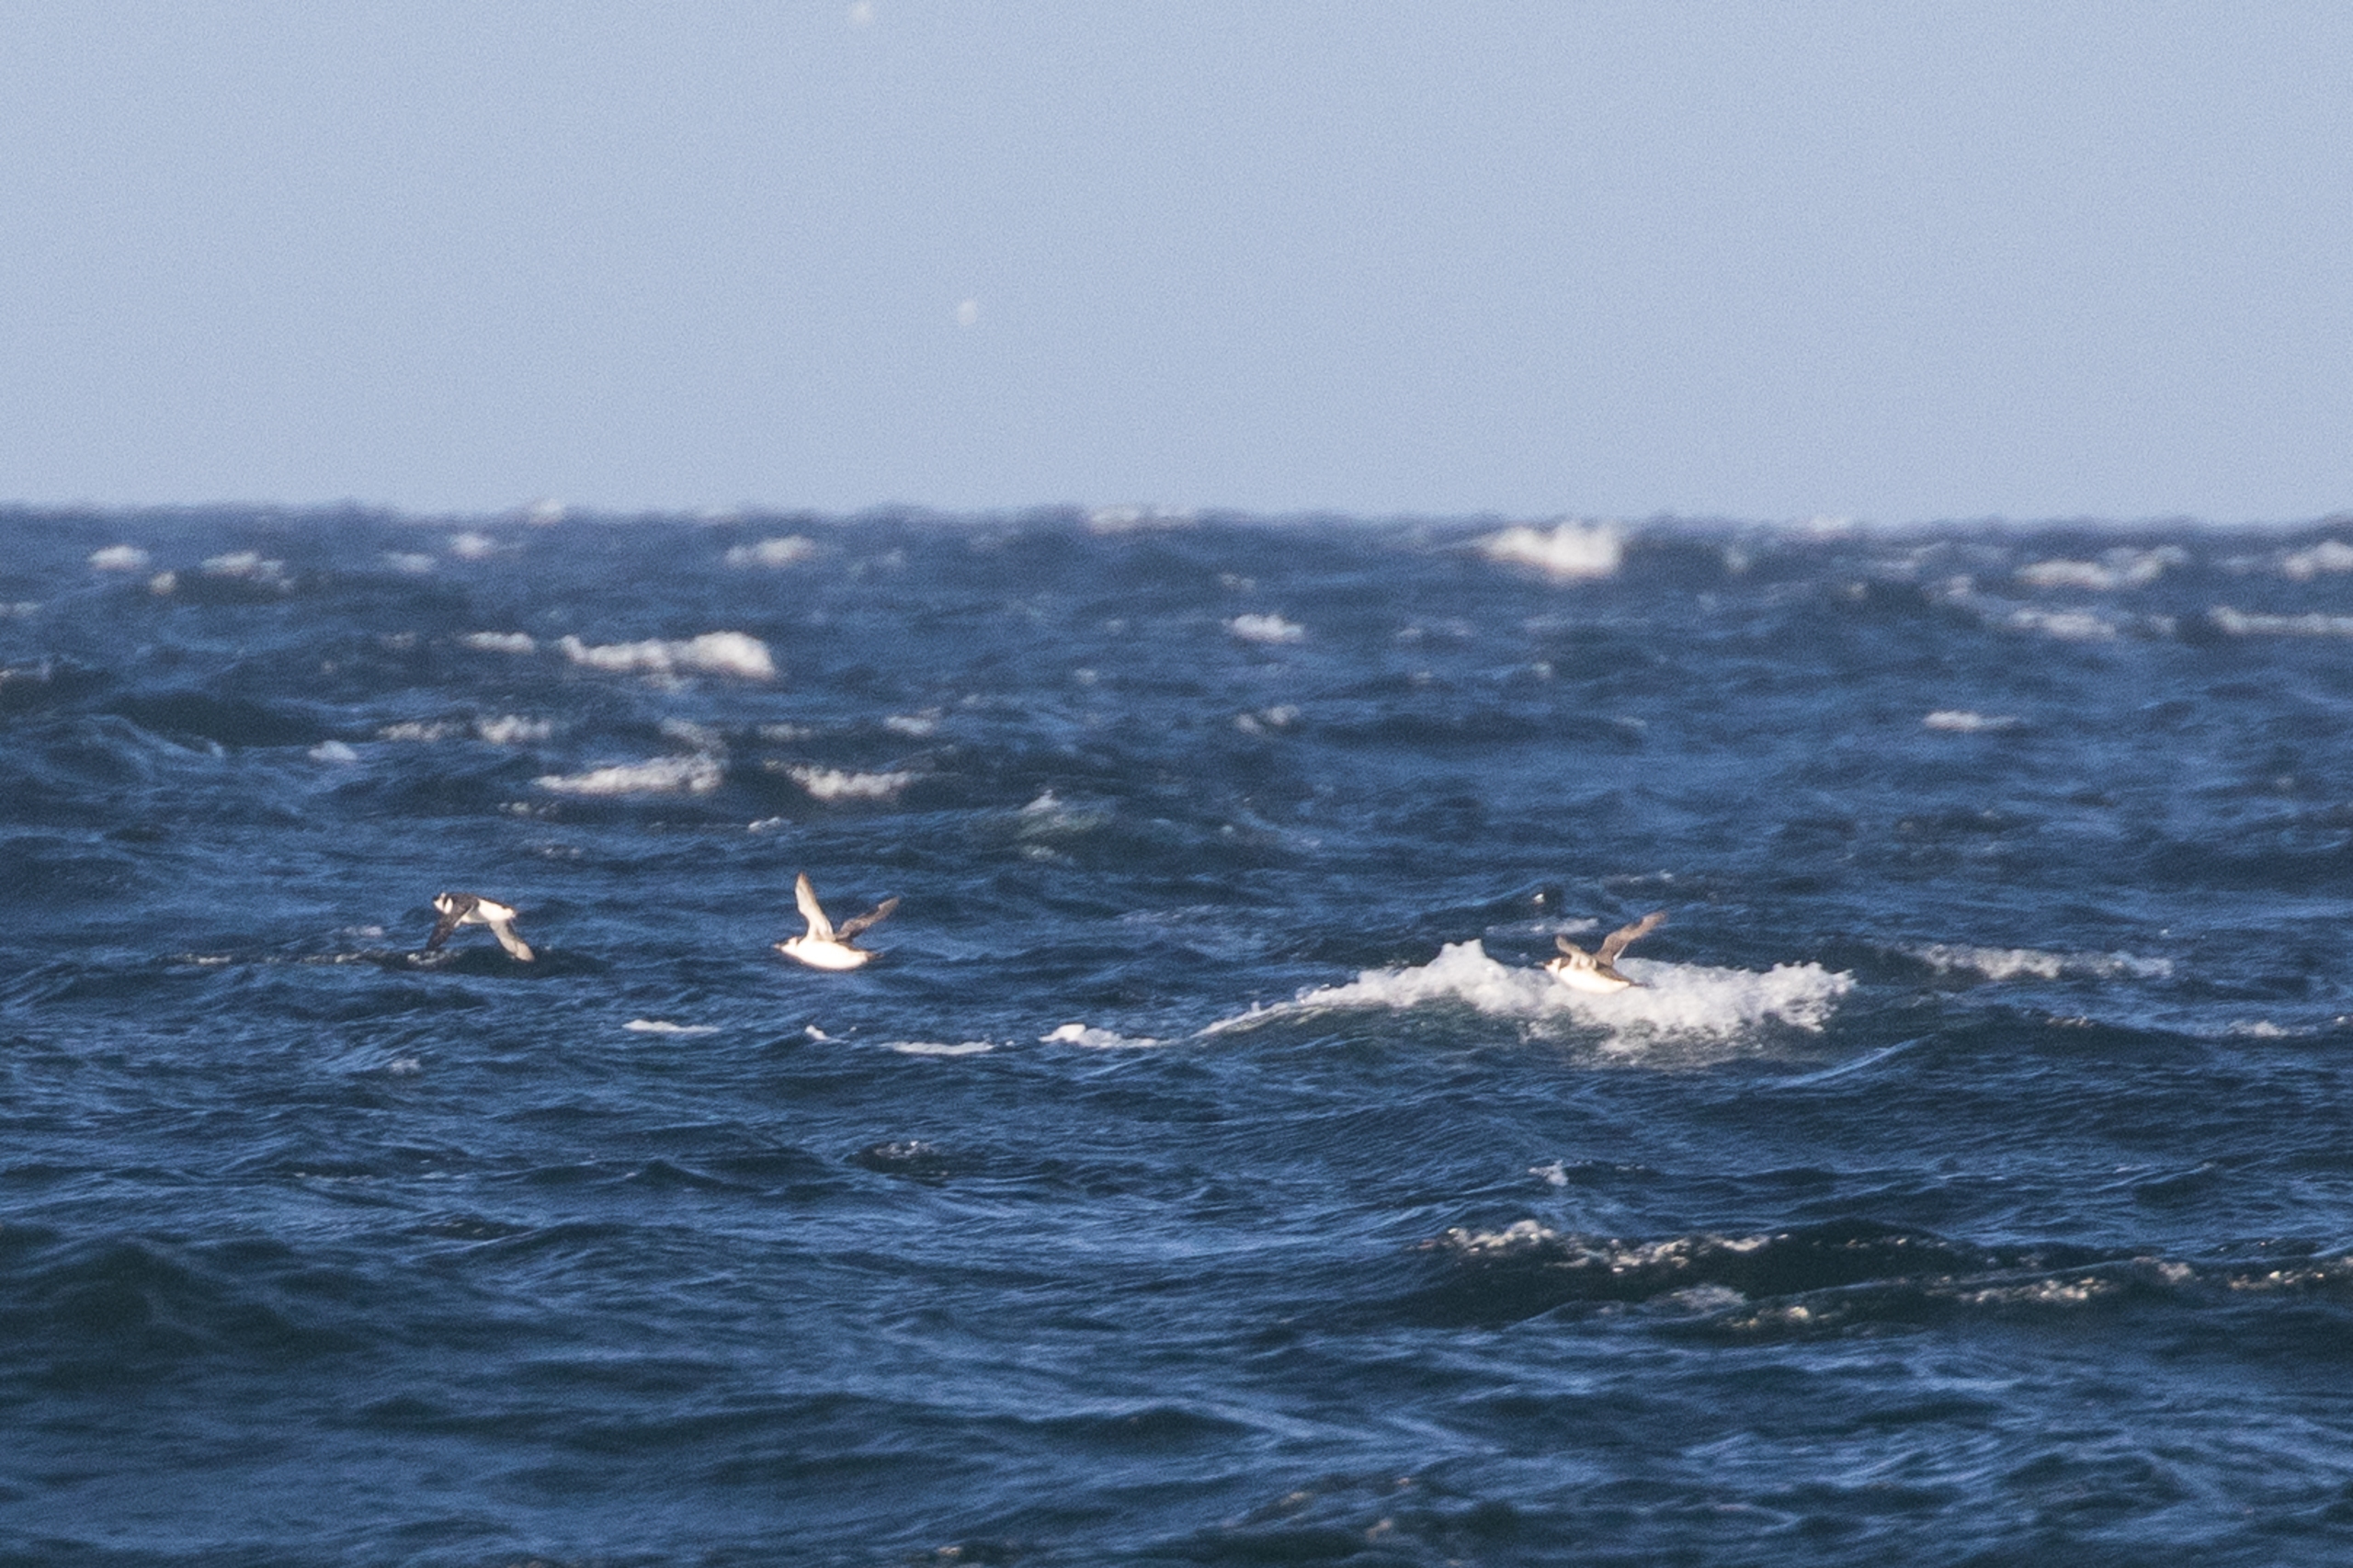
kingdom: Animalia
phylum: Chordata
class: Aves
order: Charadriiformes
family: Alcidae
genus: Uria
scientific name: Uria aalge
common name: Lomvie
